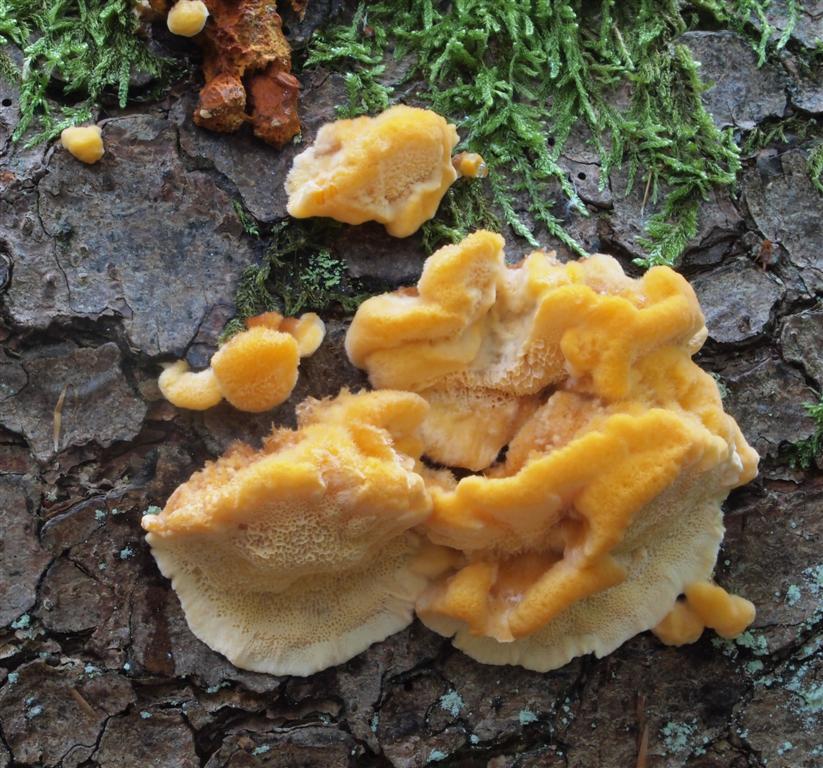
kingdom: Fungi
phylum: Basidiomycota
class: Agaricomycetes
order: Polyporales
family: Pycnoporellaceae
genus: Pycnoporellus
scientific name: Pycnoporellus fulgens
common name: flammeporesvamp
